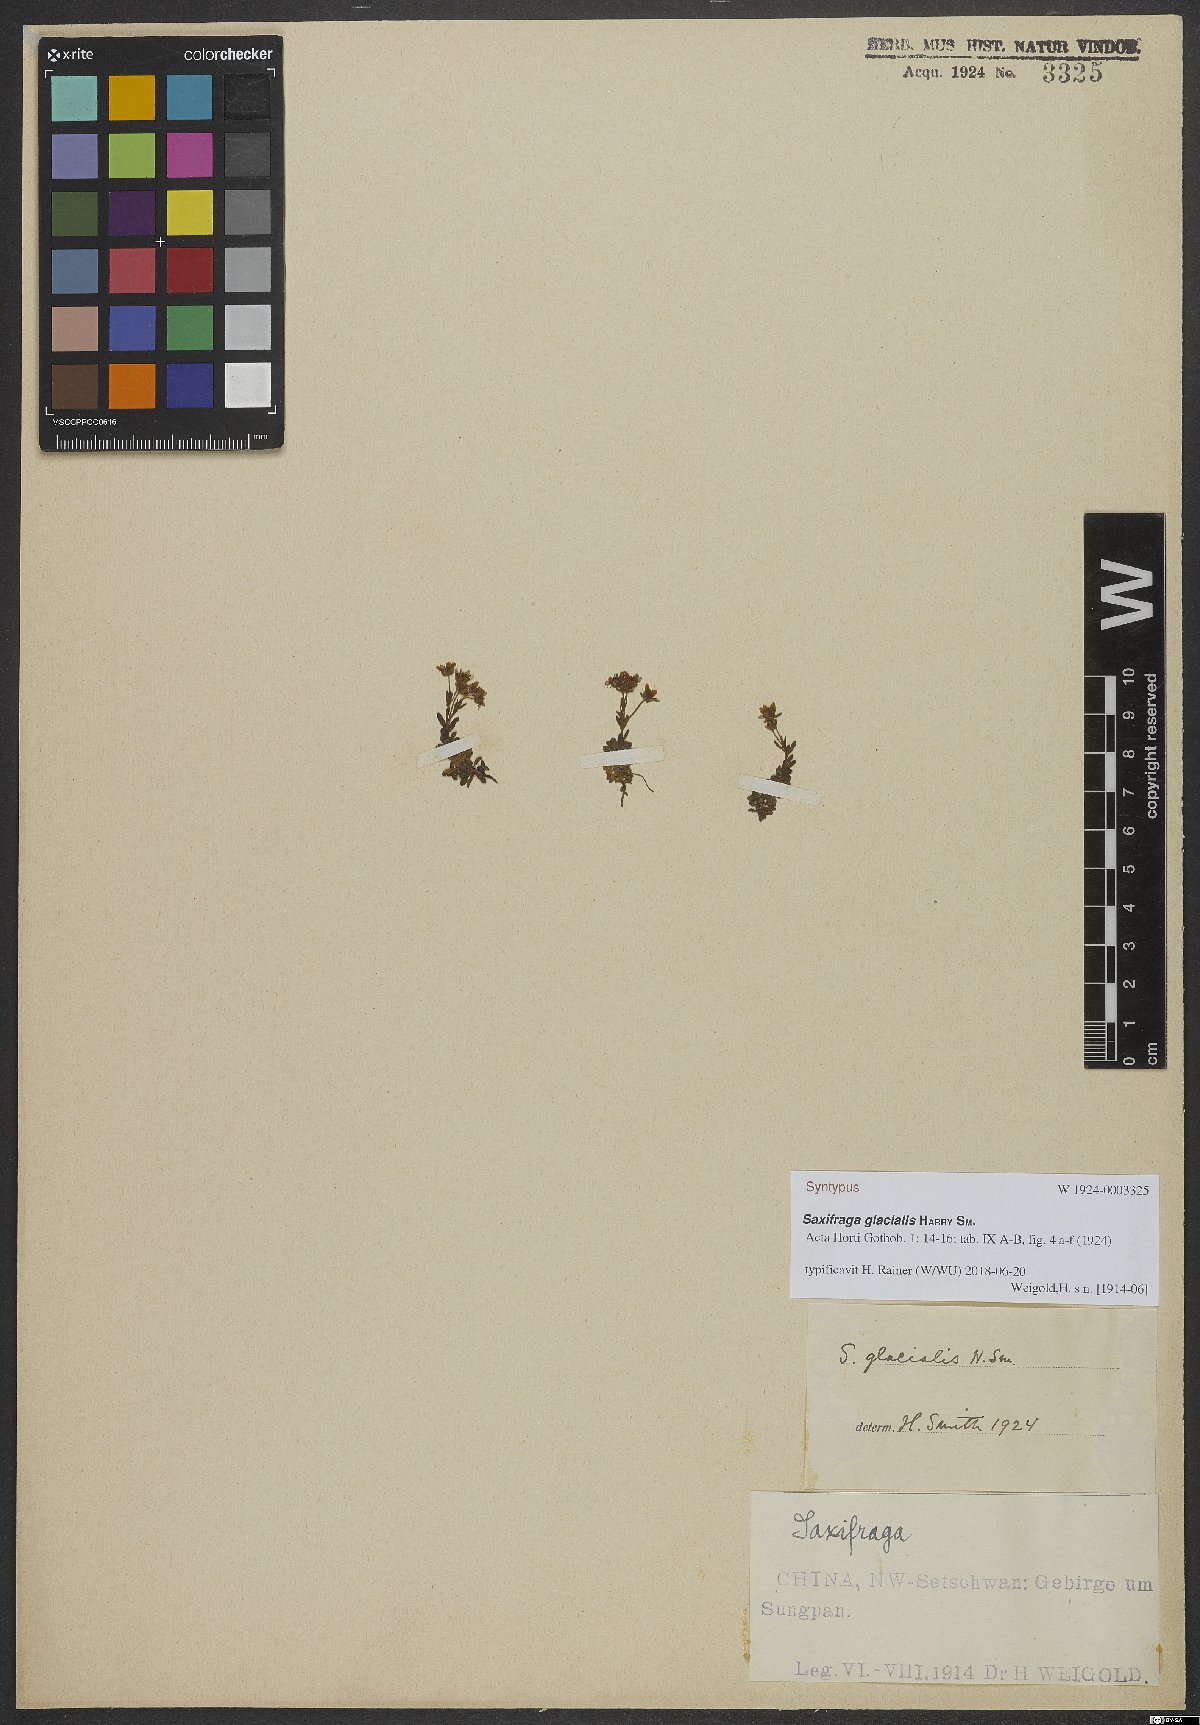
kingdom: Plantae
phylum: Tracheophyta
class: Magnoliopsida
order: Saxifragales
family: Saxifragaceae
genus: Saxifraga
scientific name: Saxifraga glacialis
